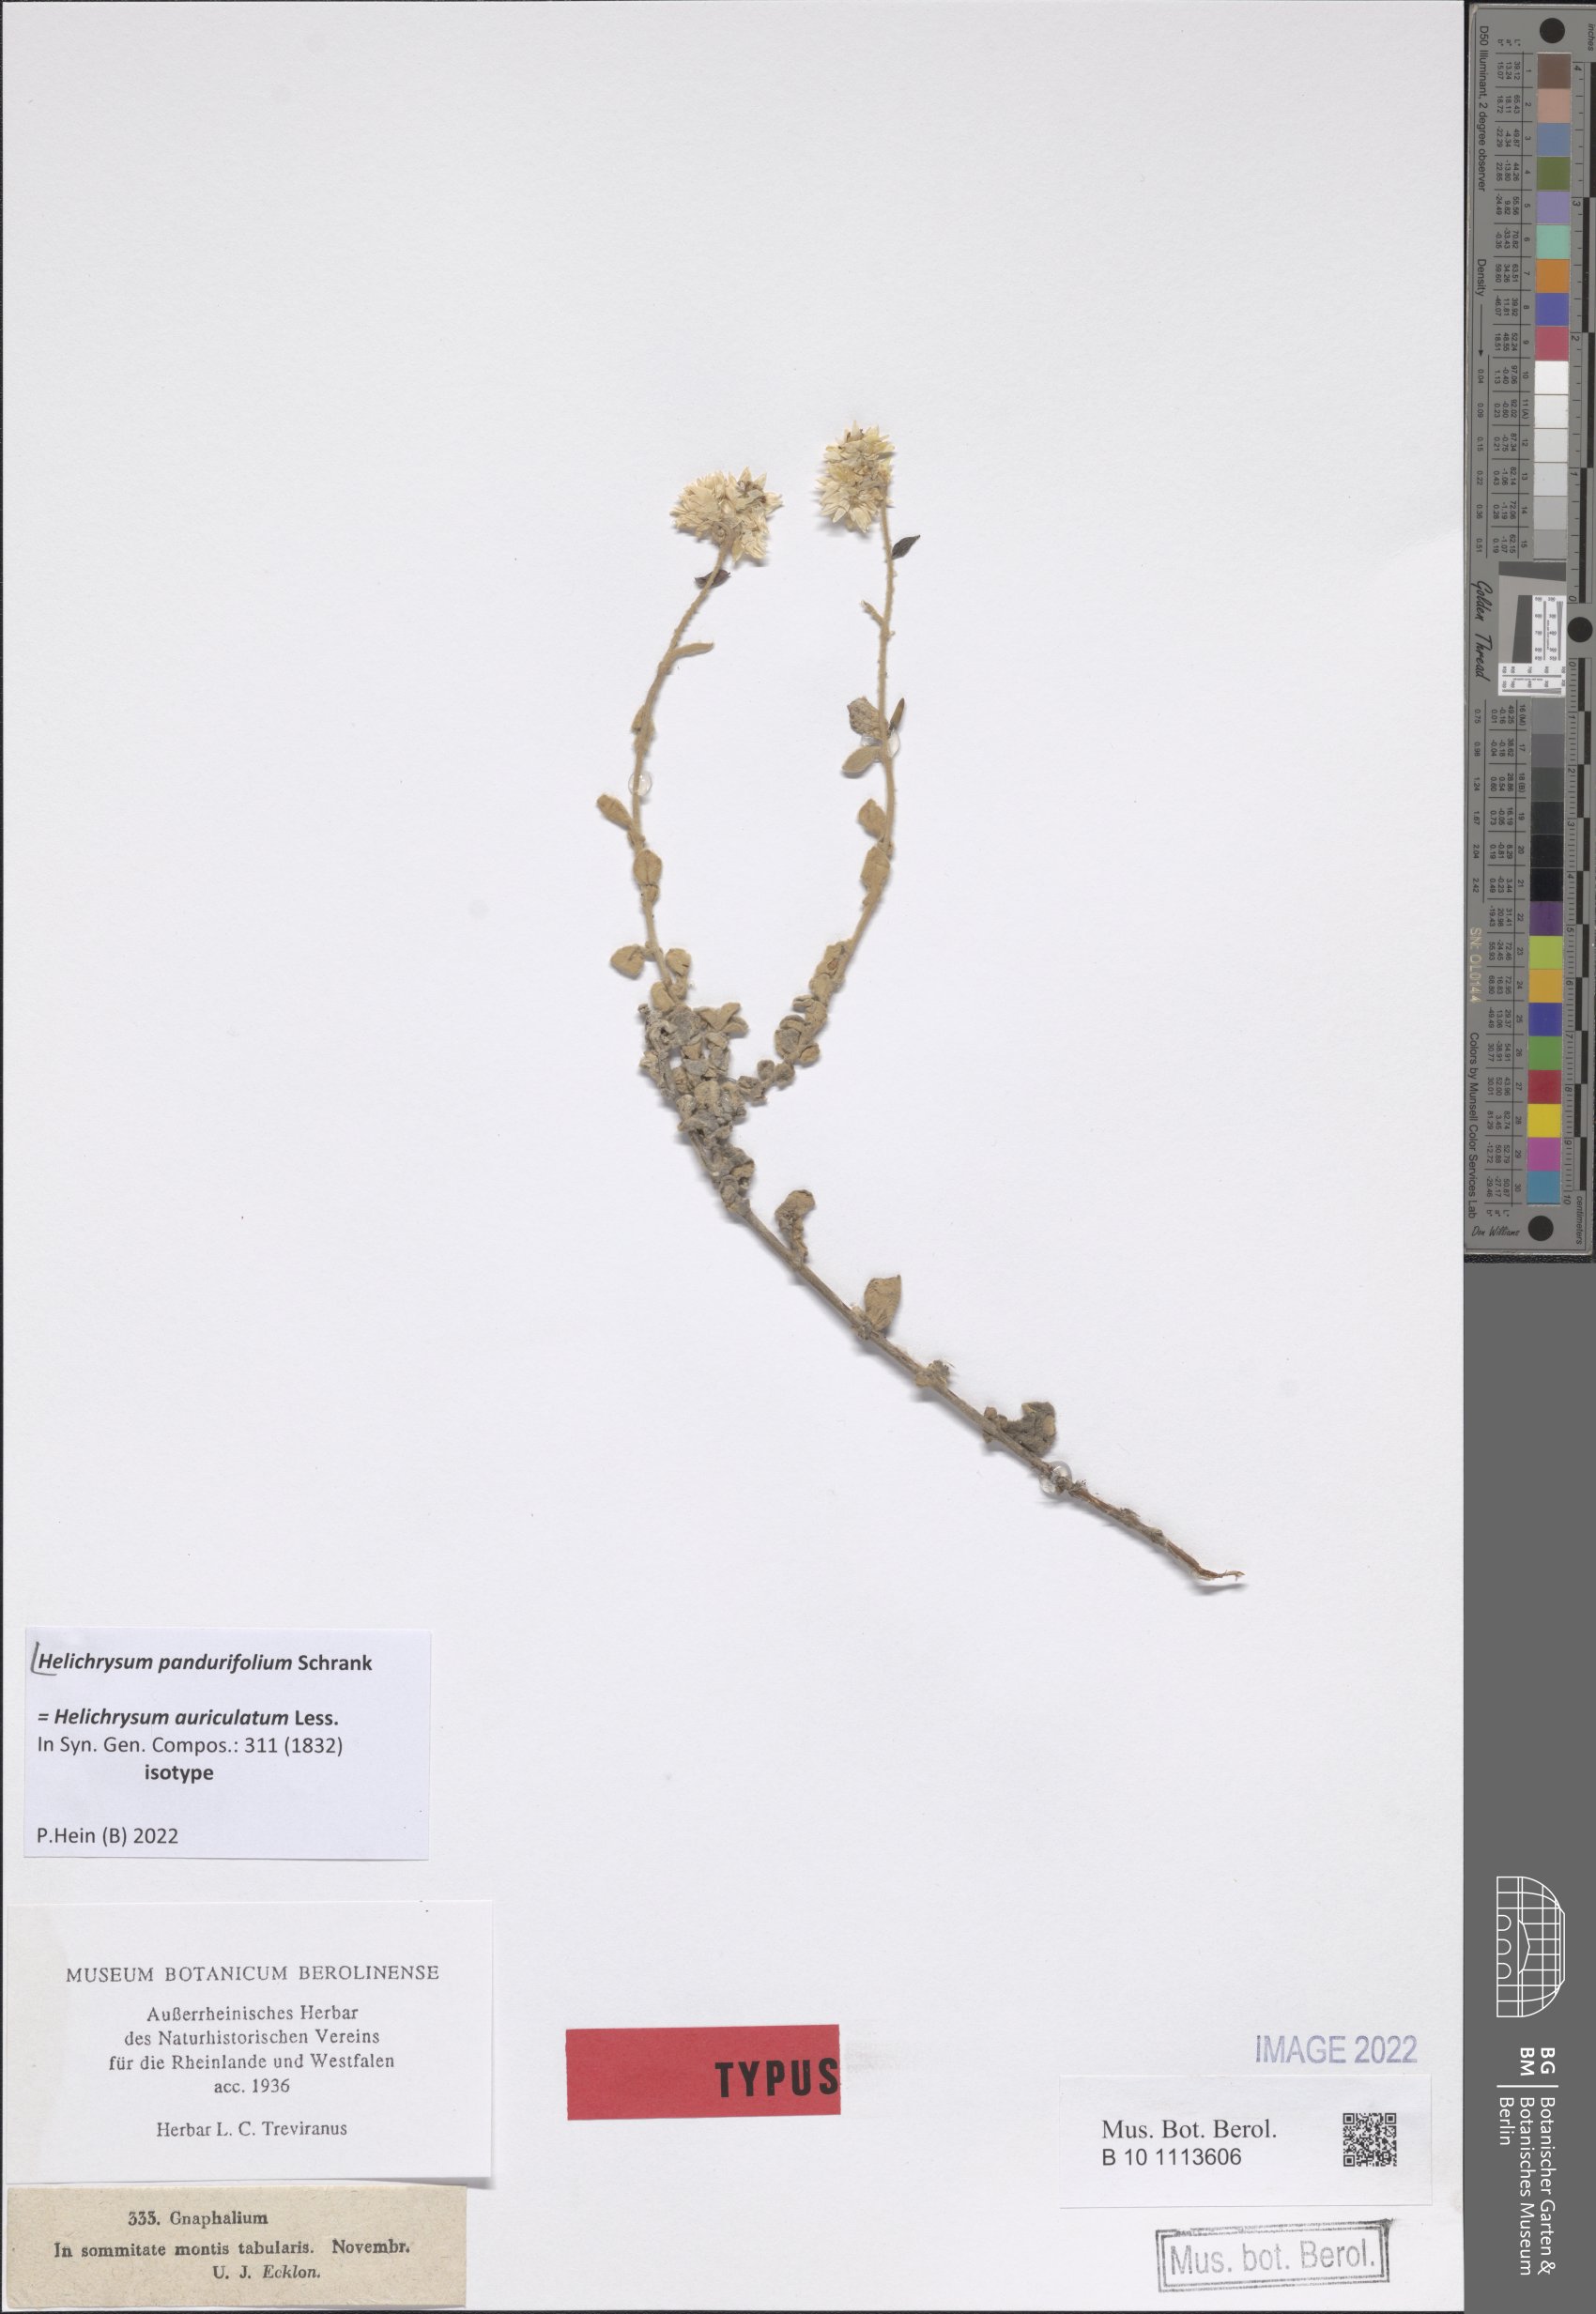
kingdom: Plantae
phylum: Tracheophyta
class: Magnoliopsida
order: Asterales
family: Asteraceae
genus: Helichrysum
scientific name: Helichrysum pandurifolium
